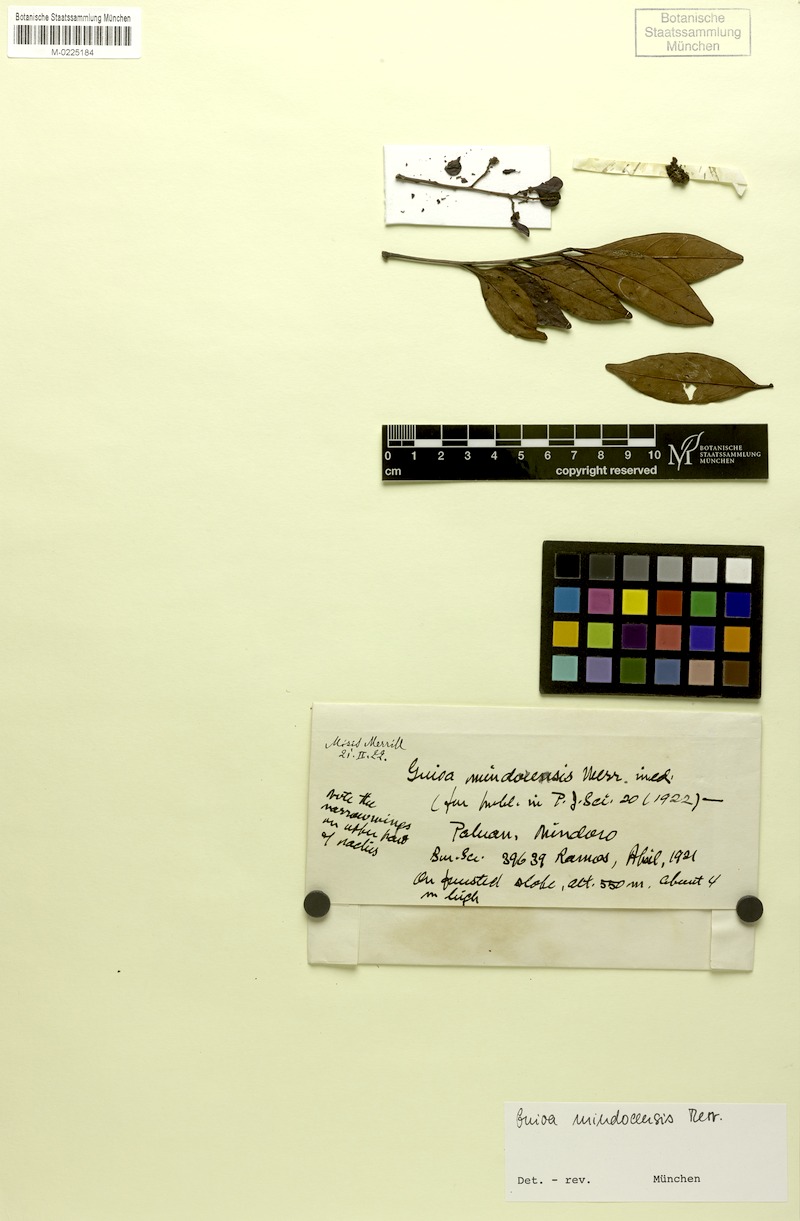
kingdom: Plantae
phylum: Tracheophyta
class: Magnoliopsida
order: Sapindales
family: Sapindaceae
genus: Guioa
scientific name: Guioa koelreuteria
